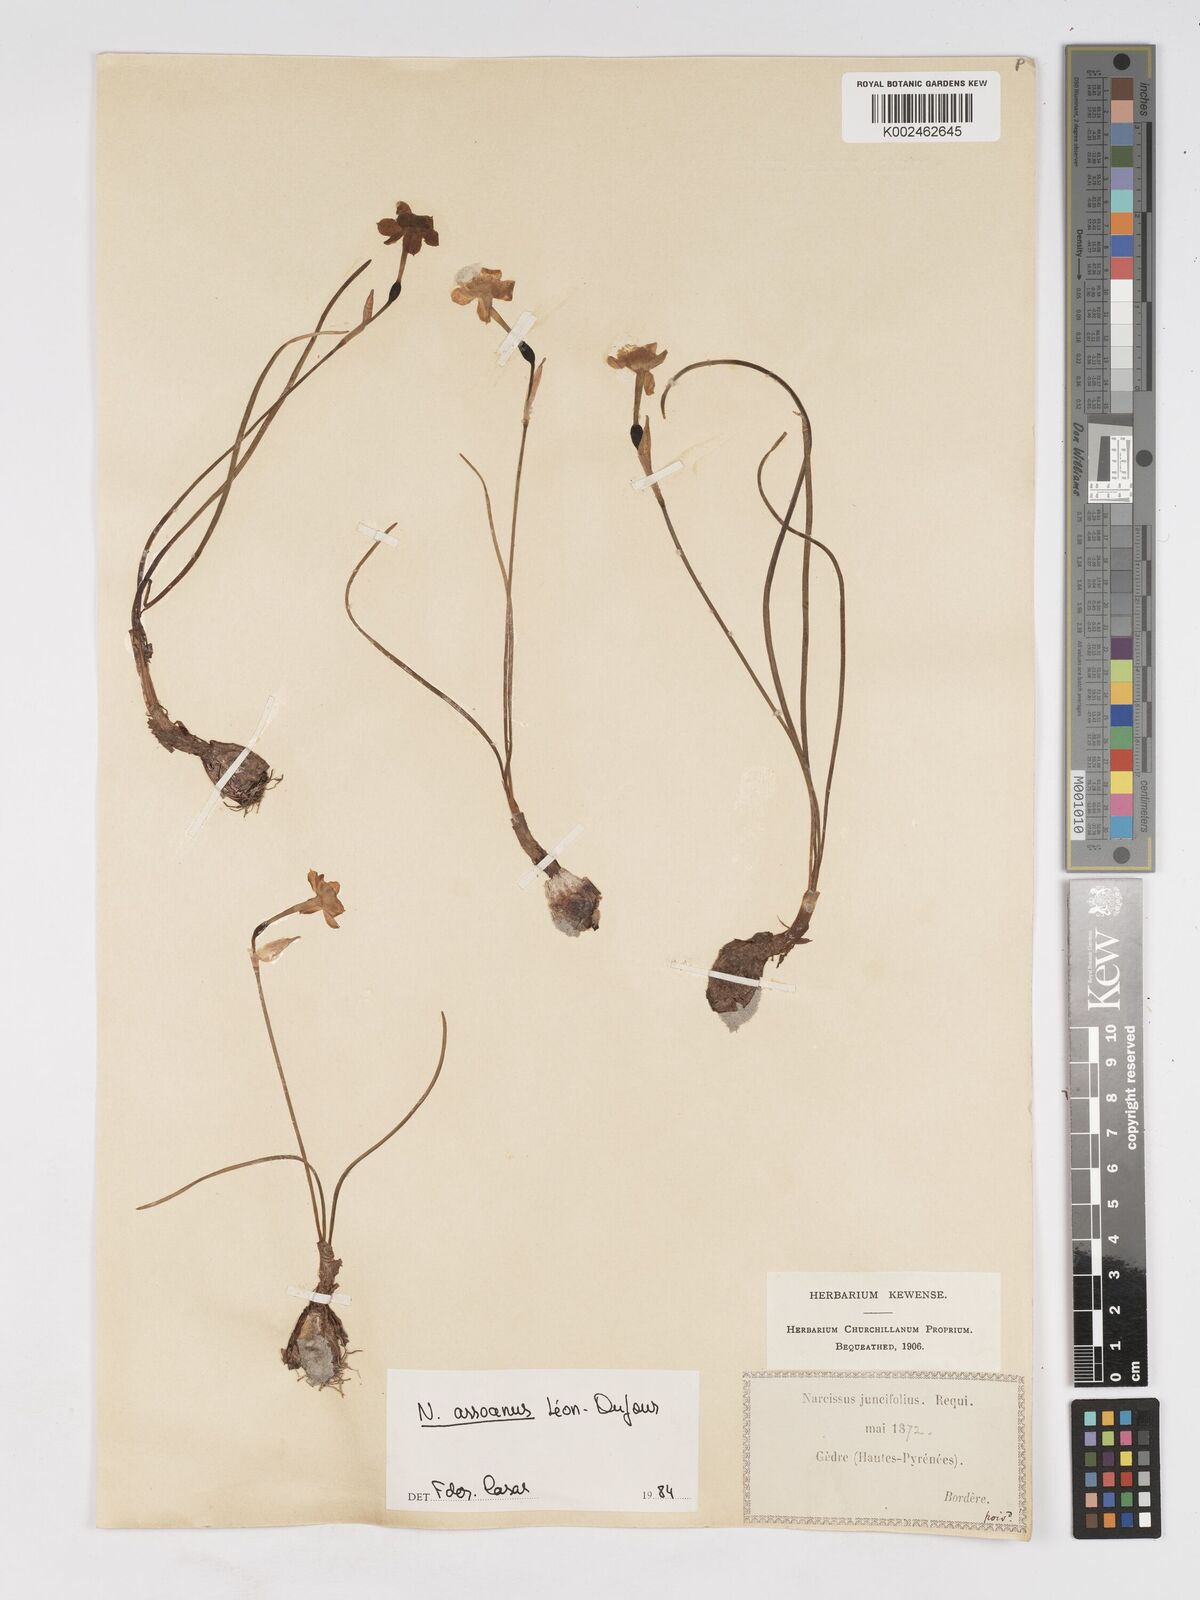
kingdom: Plantae
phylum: Tracheophyta
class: Liliopsida
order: Asparagales
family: Amaryllidaceae
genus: Narcissus
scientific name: Narcissus assoanus
